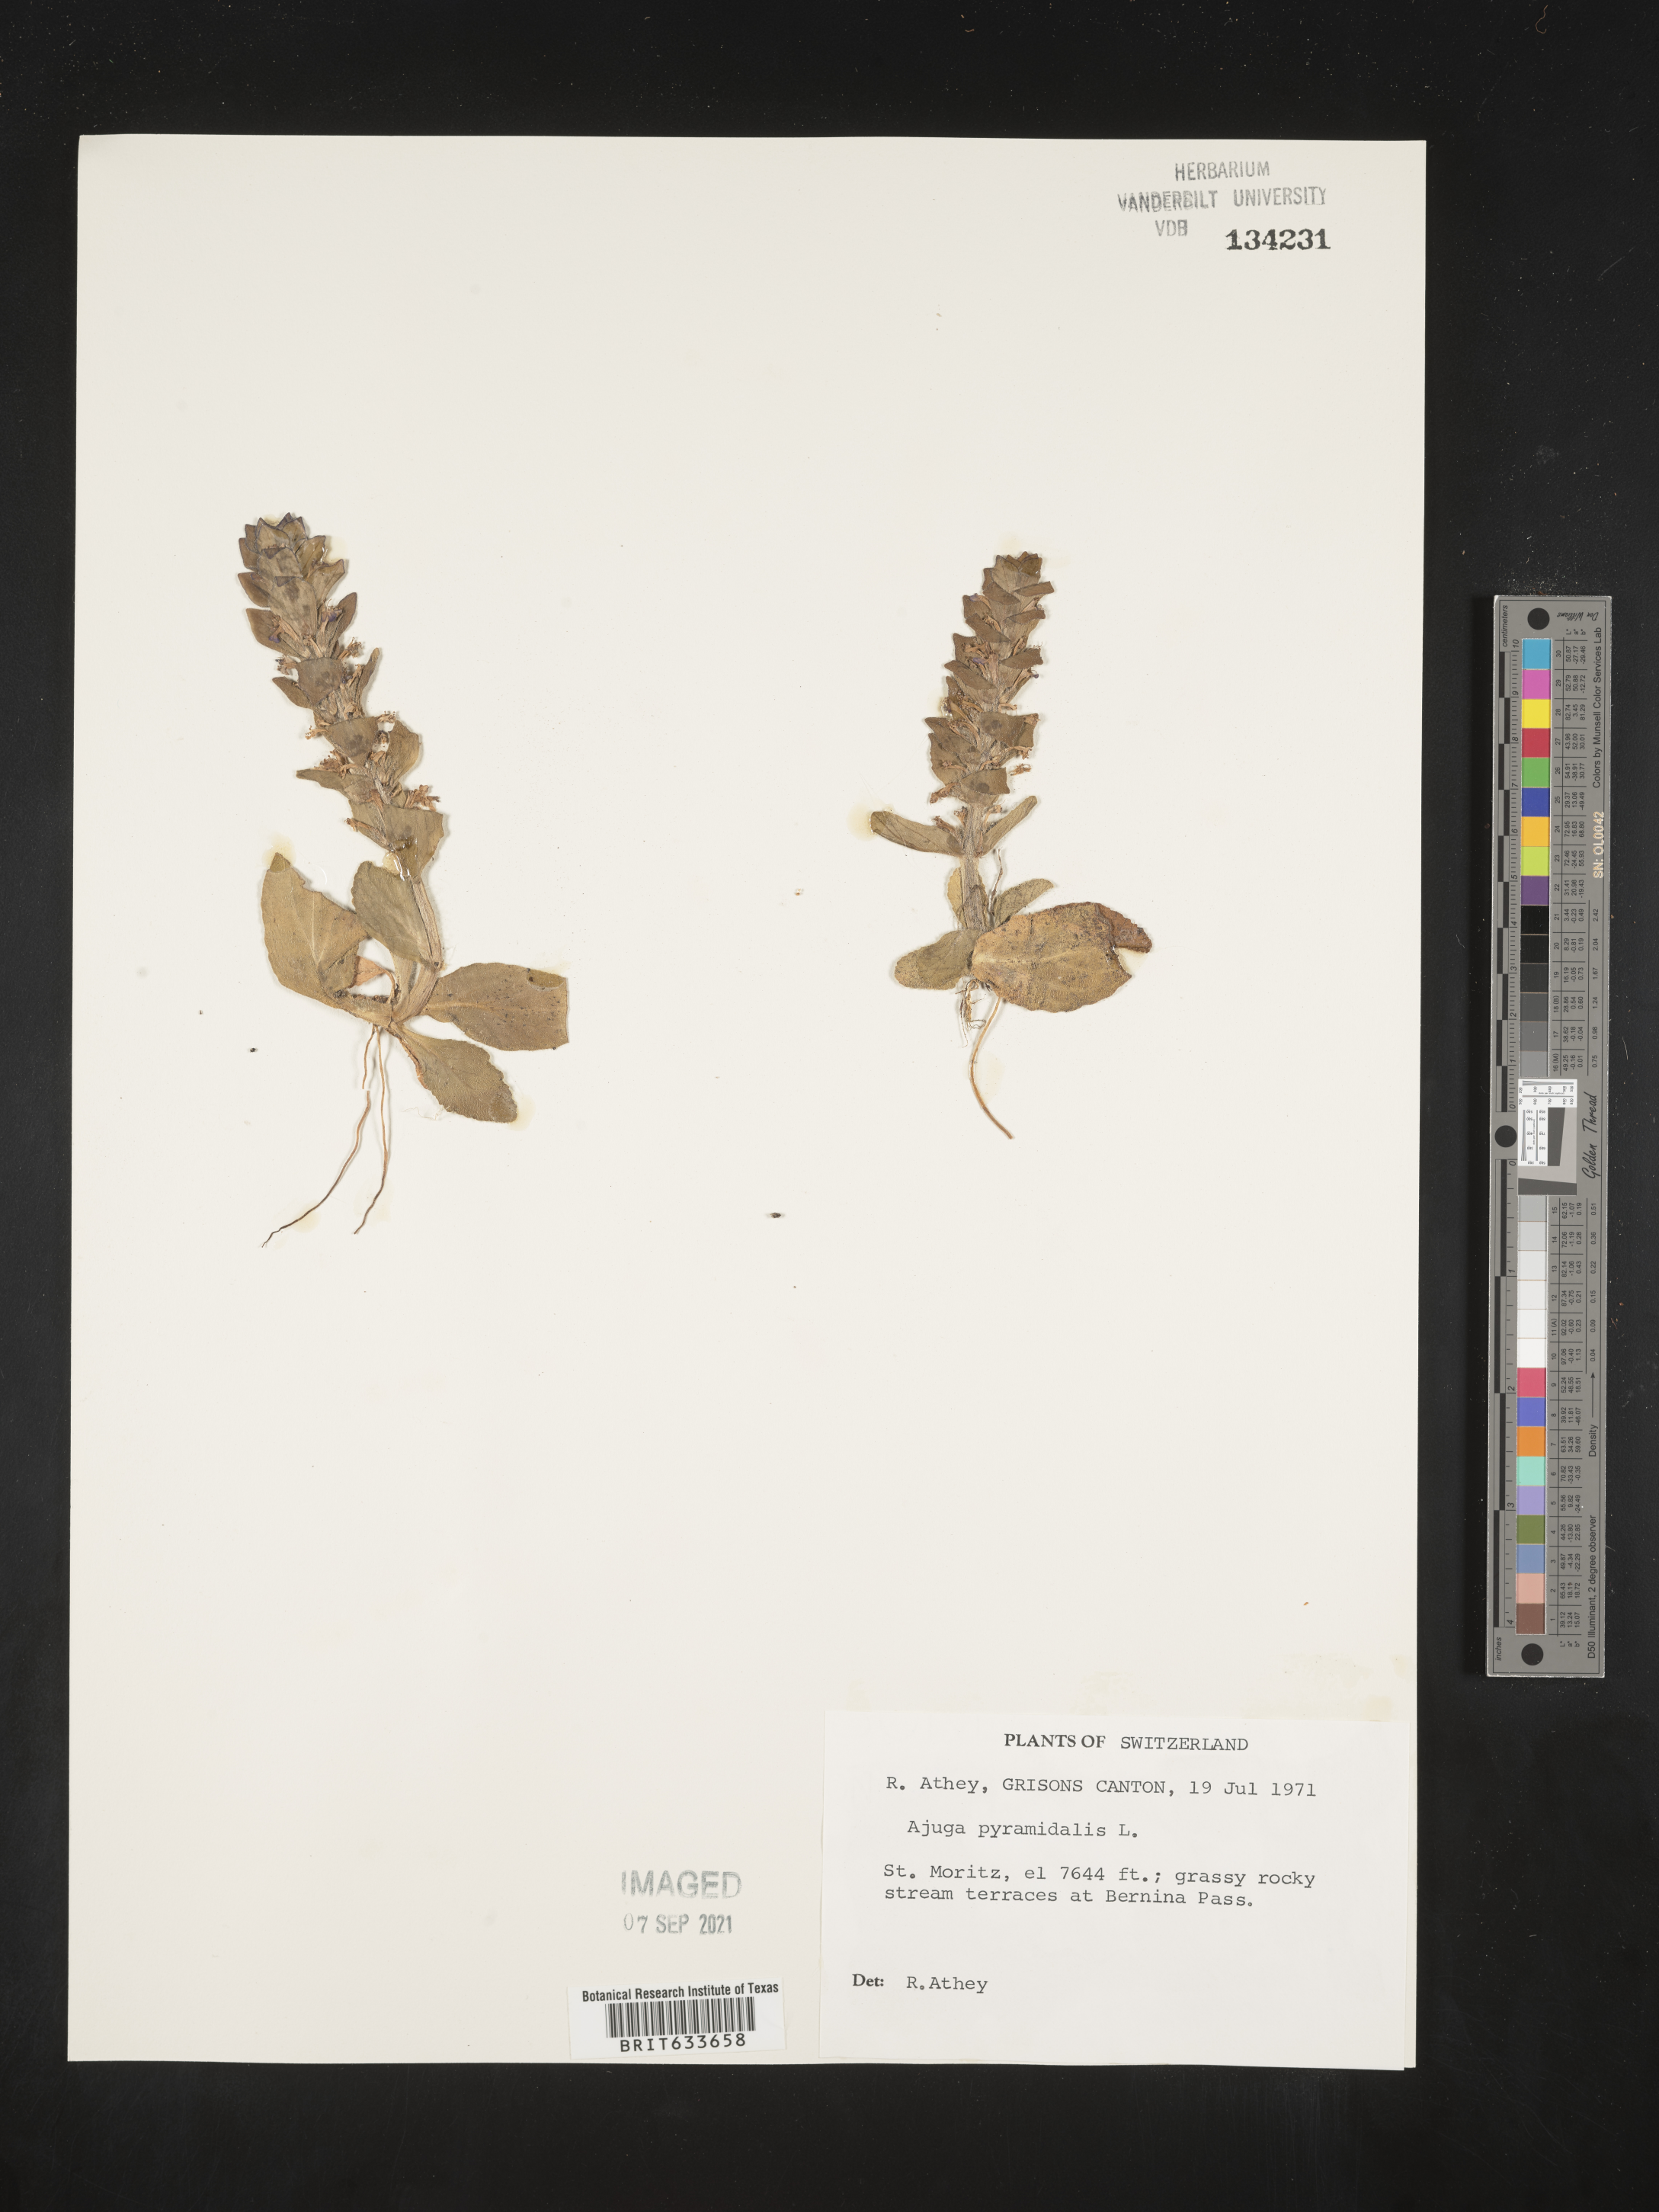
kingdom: Plantae
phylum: Tracheophyta
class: Magnoliopsida
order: Lamiales
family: Lamiaceae
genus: Ajuga
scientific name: Ajuga
